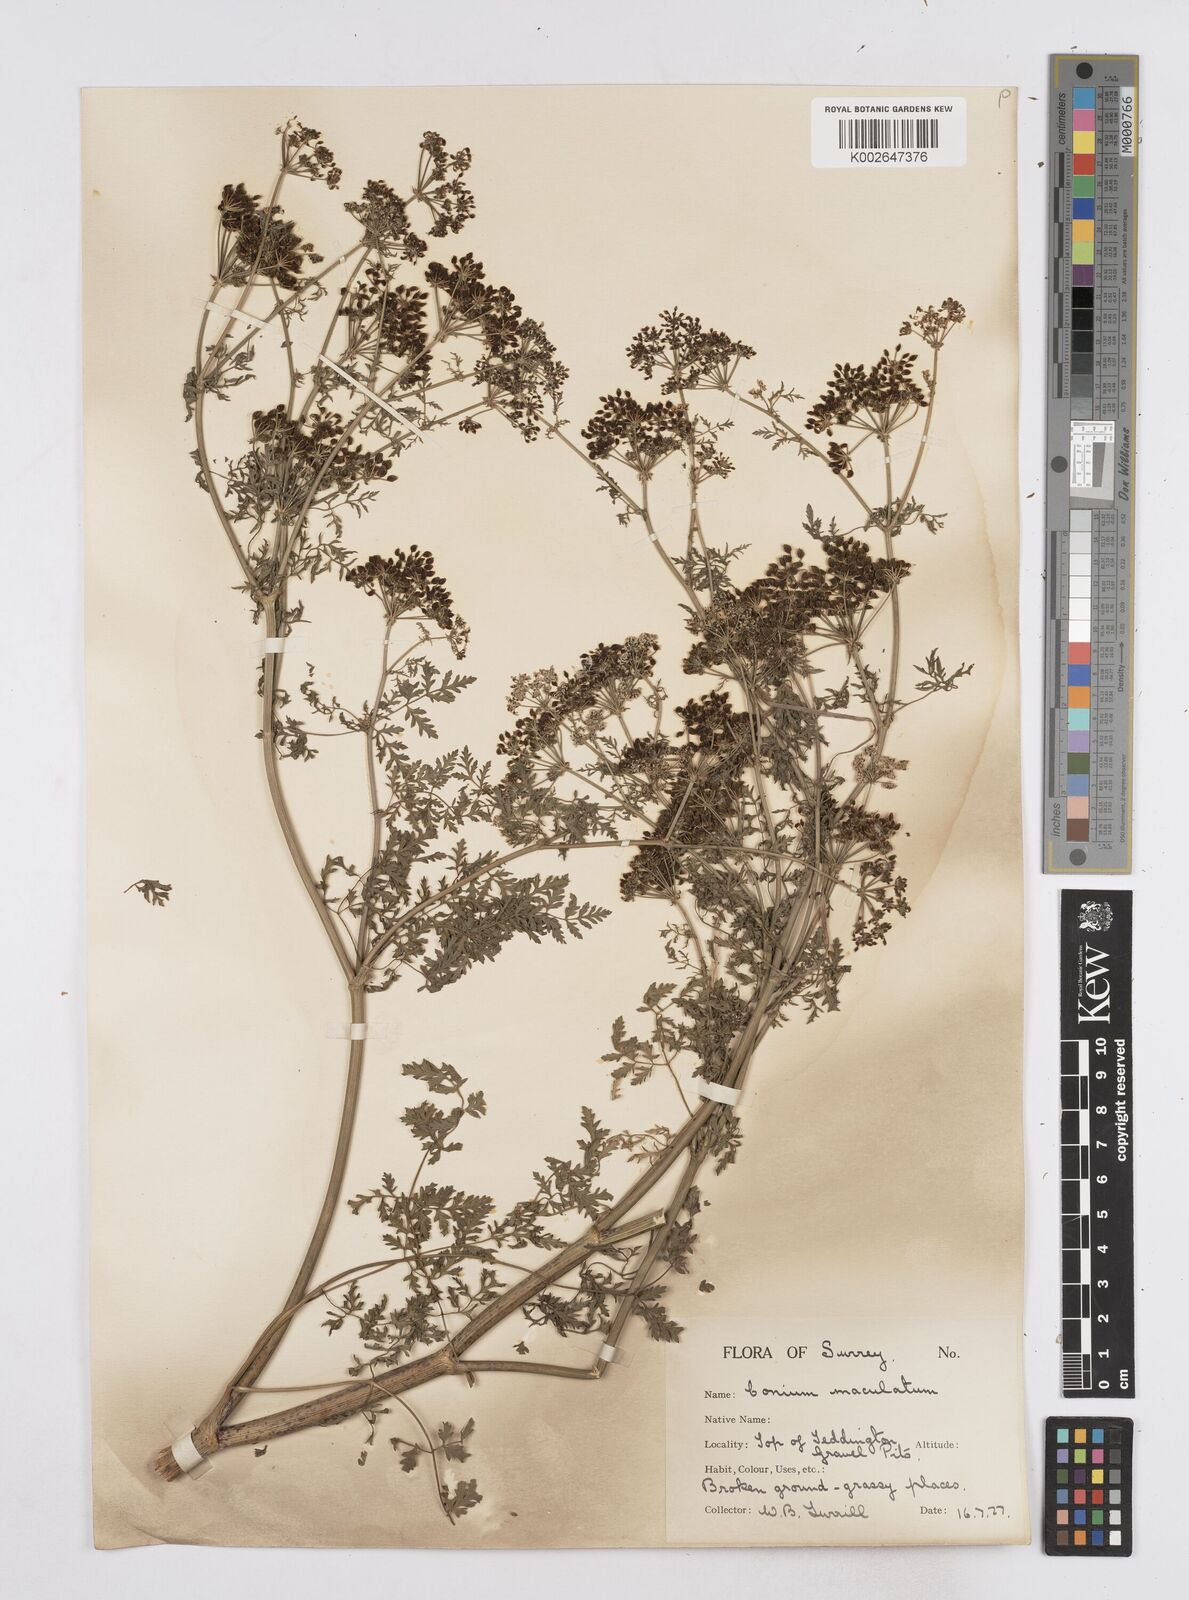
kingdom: Plantae
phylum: Tracheophyta
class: Magnoliopsida
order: Apiales
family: Apiaceae
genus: Conium
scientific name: Conium maculatum
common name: Hemlock
